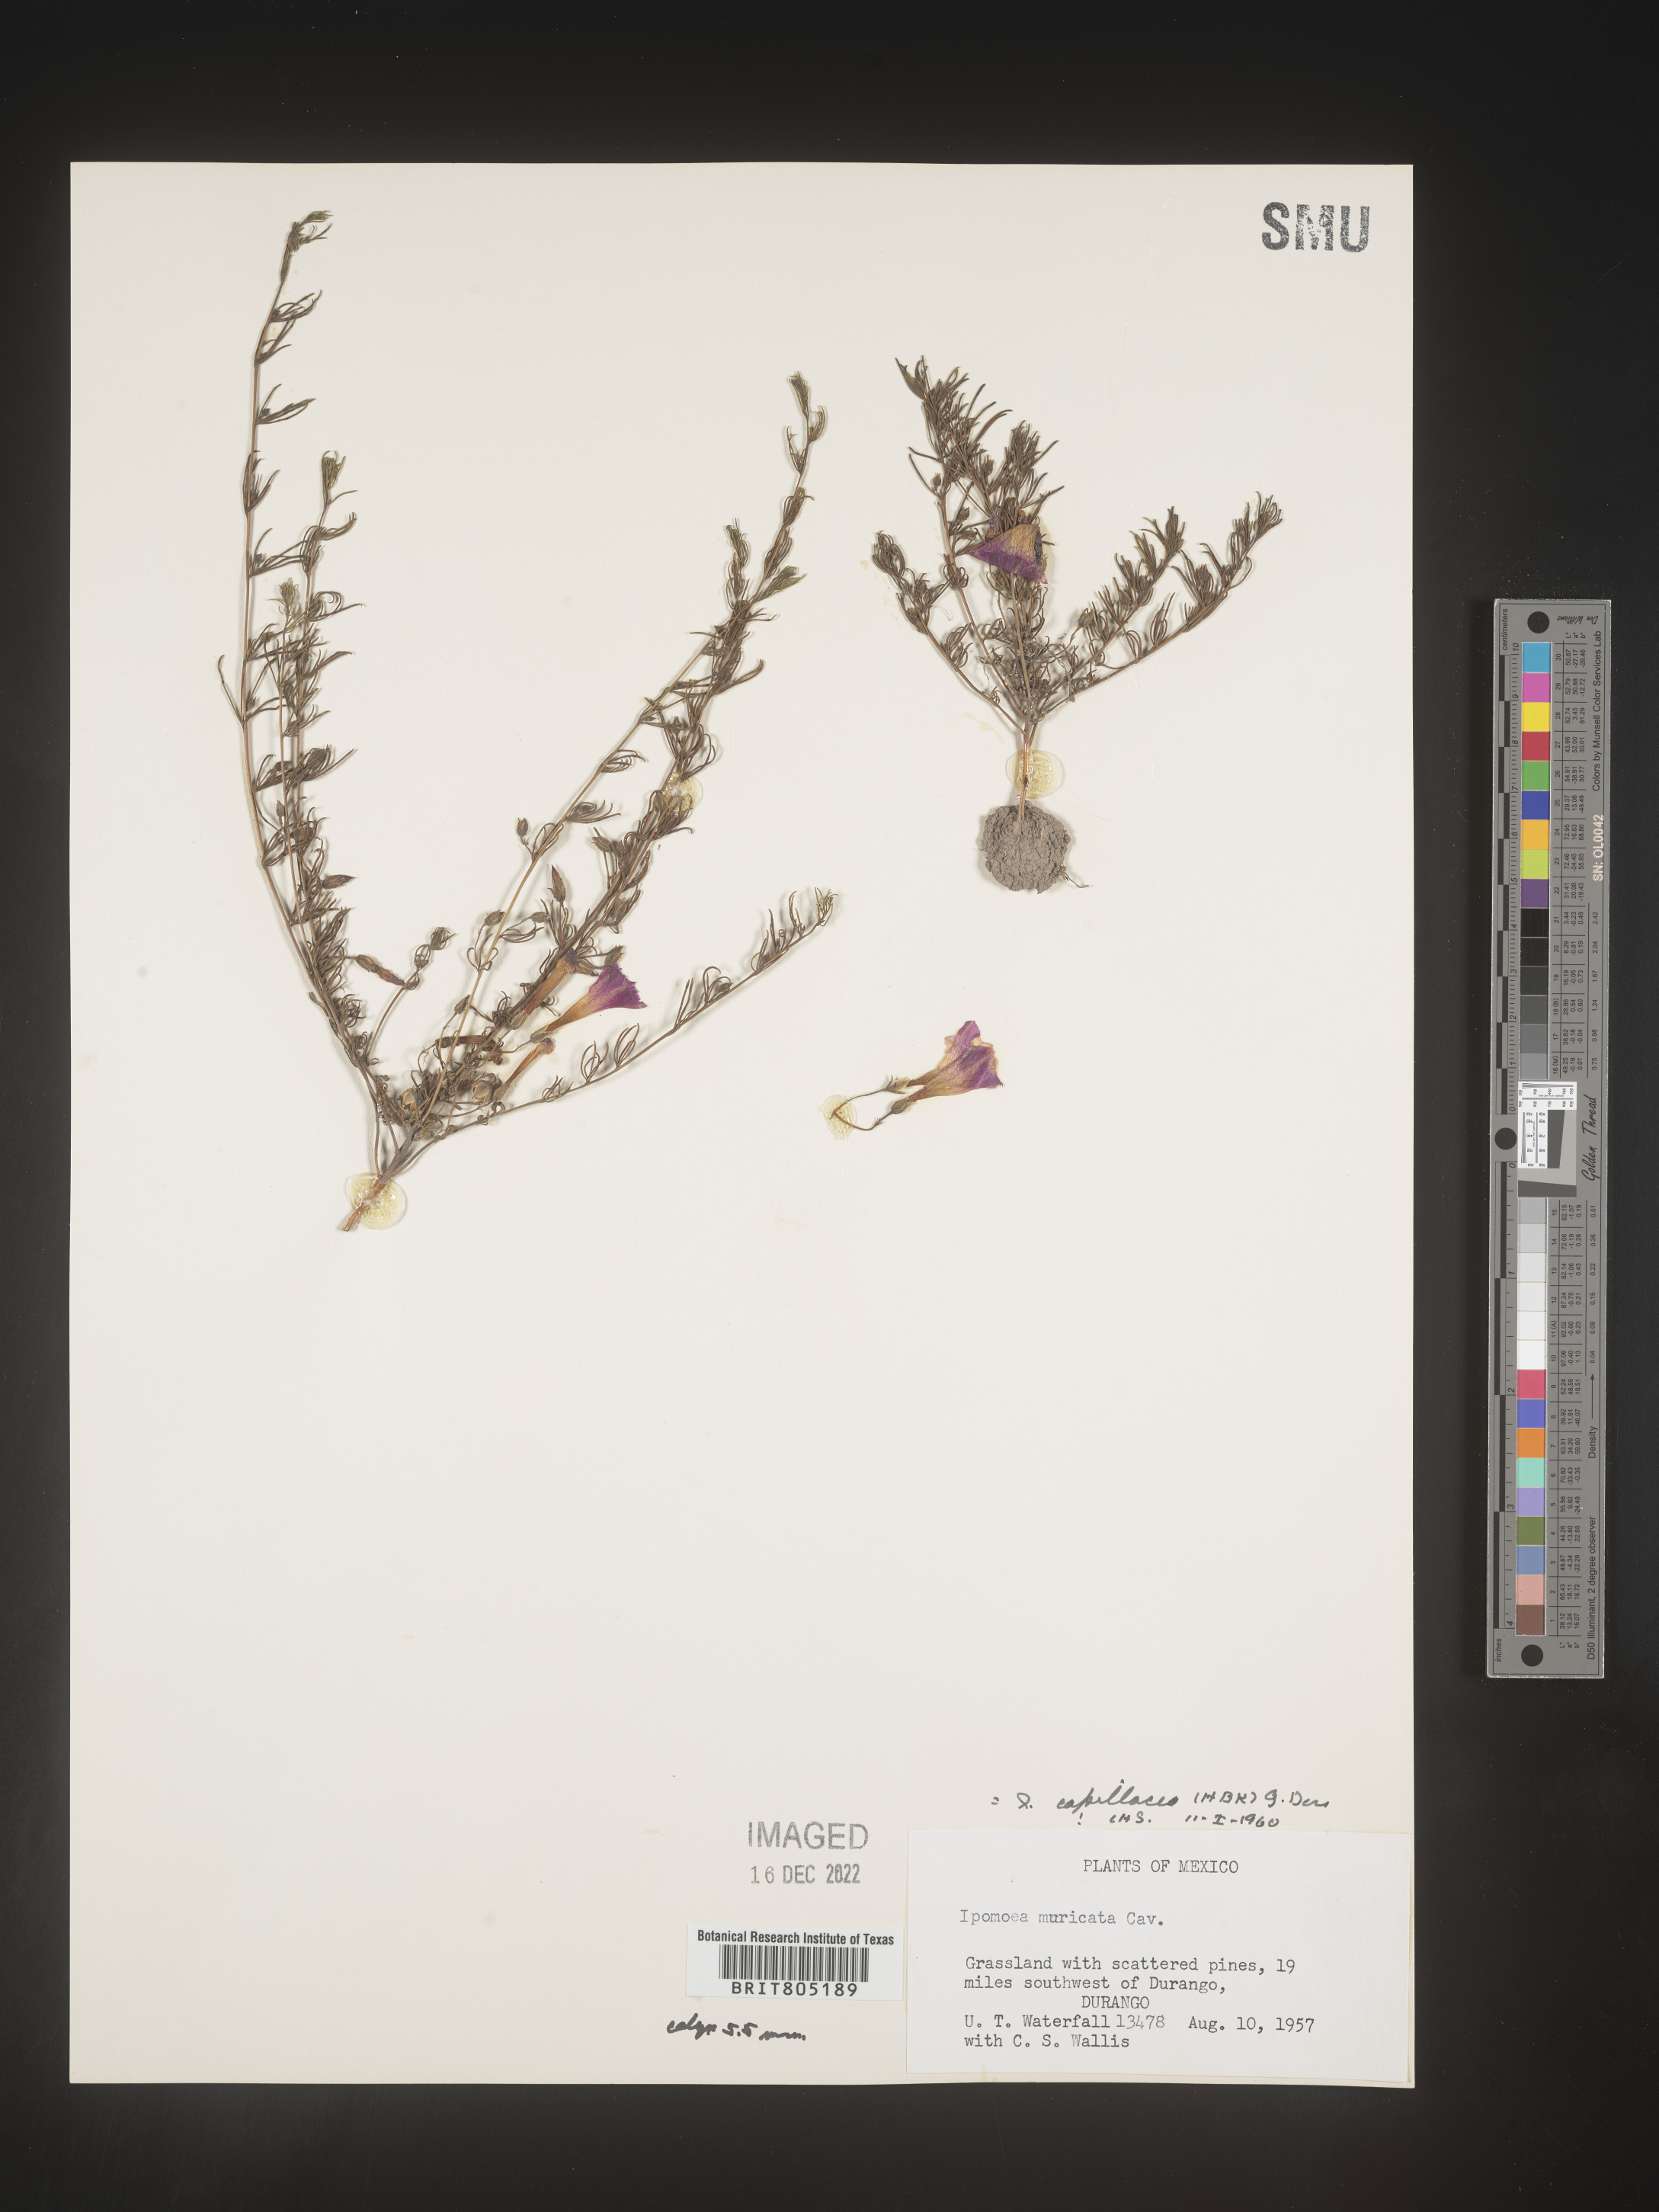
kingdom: Plantae
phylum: Tracheophyta
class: Magnoliopsida
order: Solanales
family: Convolvulaceae
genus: Ipomoea
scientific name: Ipomoea
